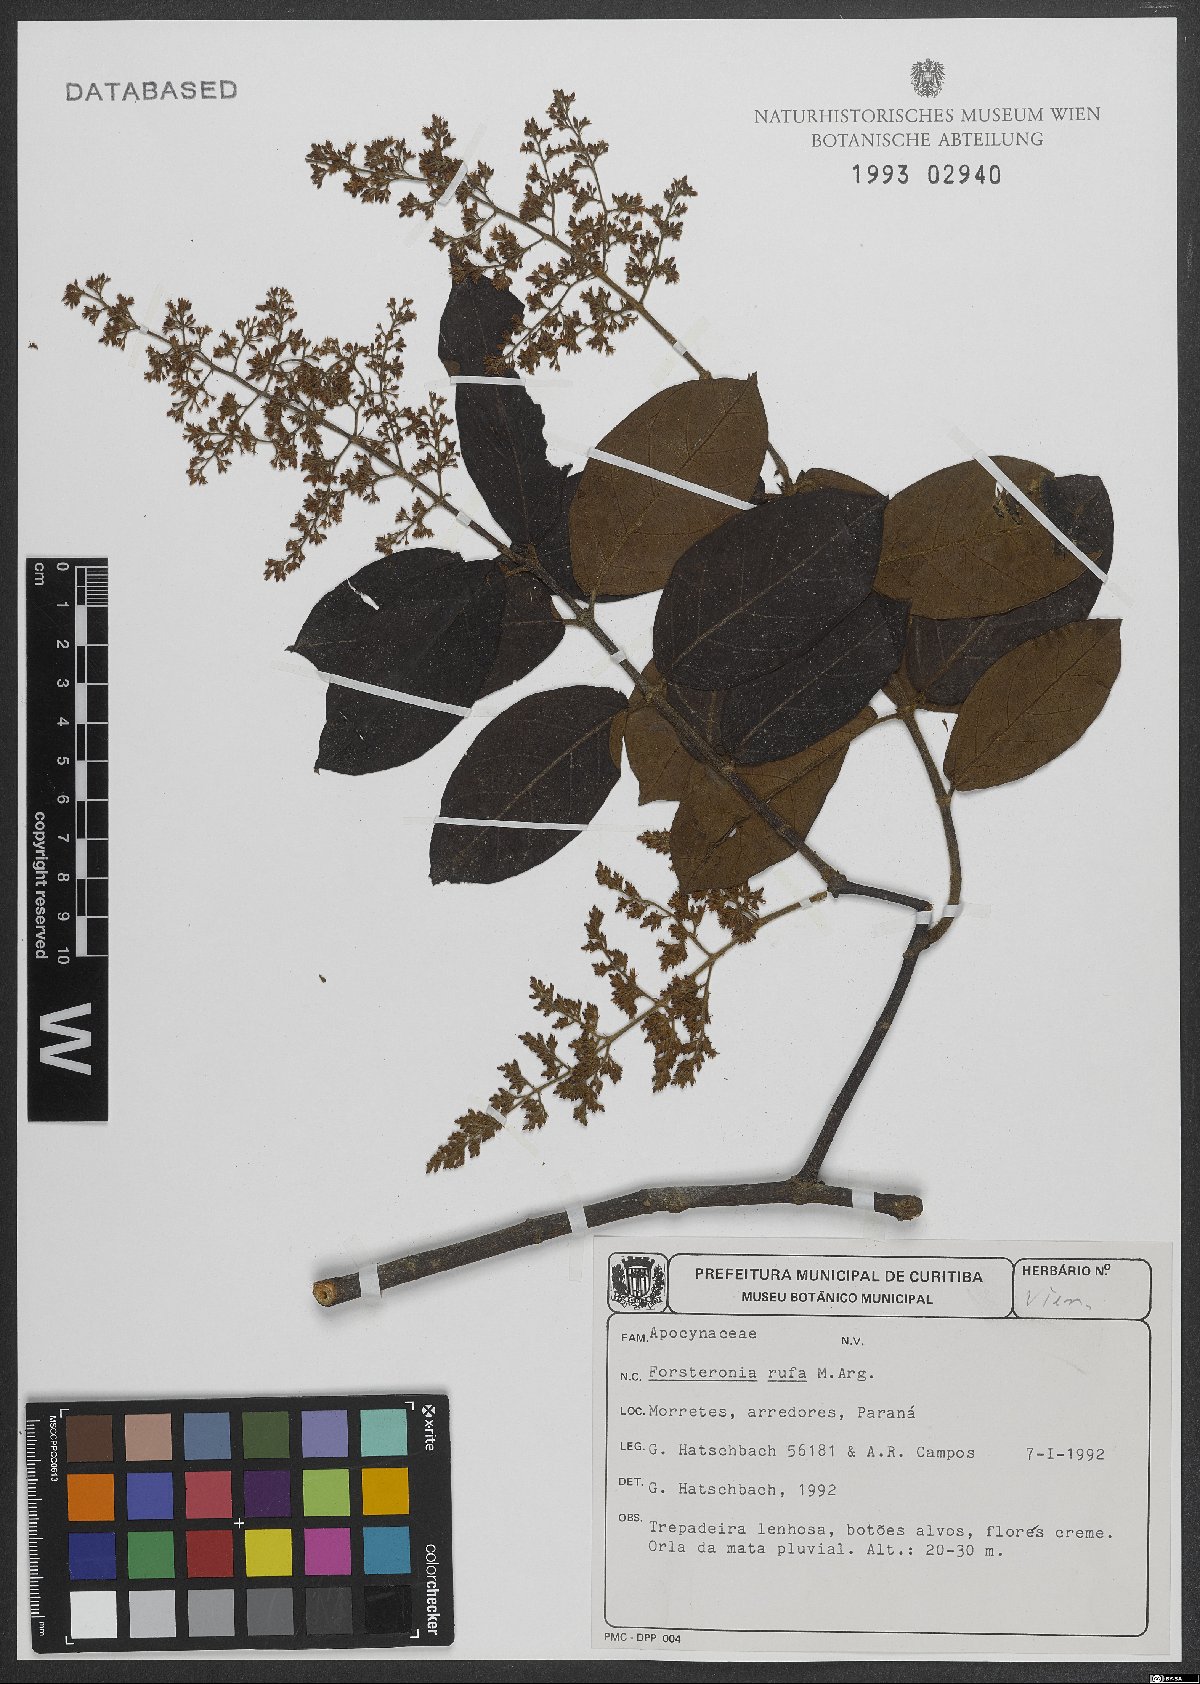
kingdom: Plantae
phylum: Tracheophyta
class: Magnoliopsida
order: Gentianales
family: Apocynaceae
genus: Forsteronia
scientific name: Forsteronia rufa
